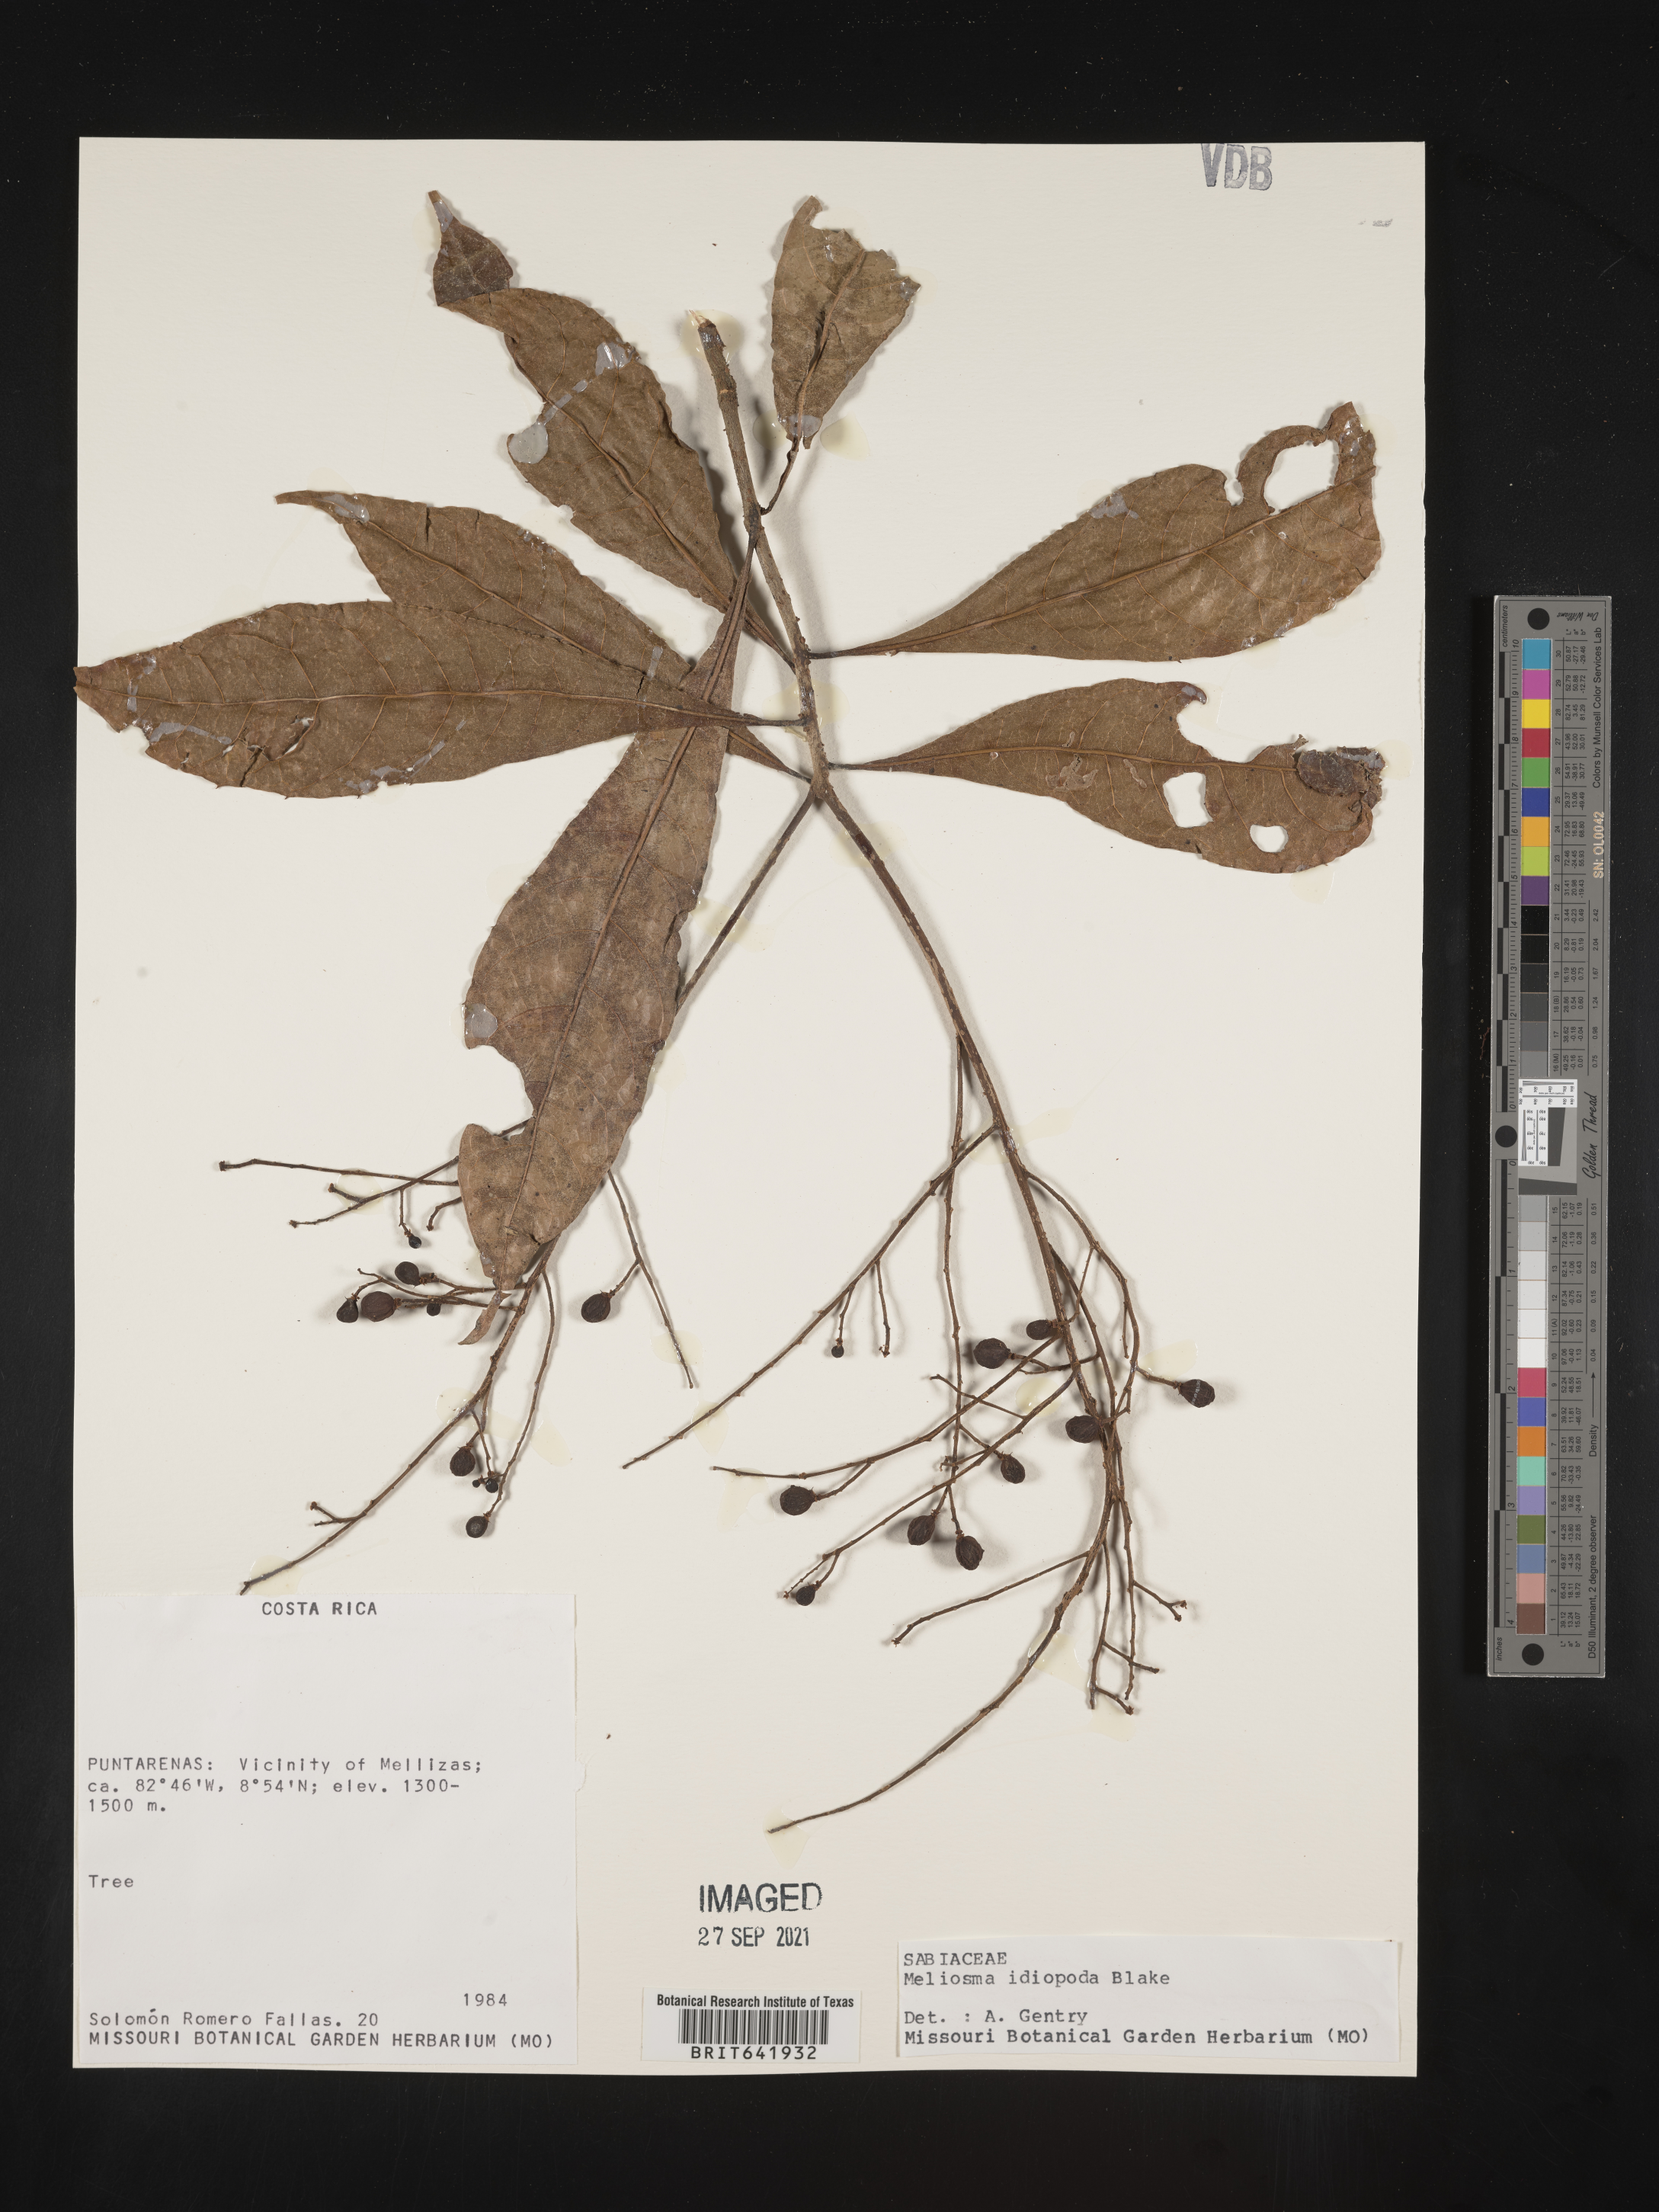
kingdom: Plantae
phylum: Tracheophyta
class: Magnoliopsida
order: Proteales
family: Sabiaceae
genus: Meliosma
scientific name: Meliosma
